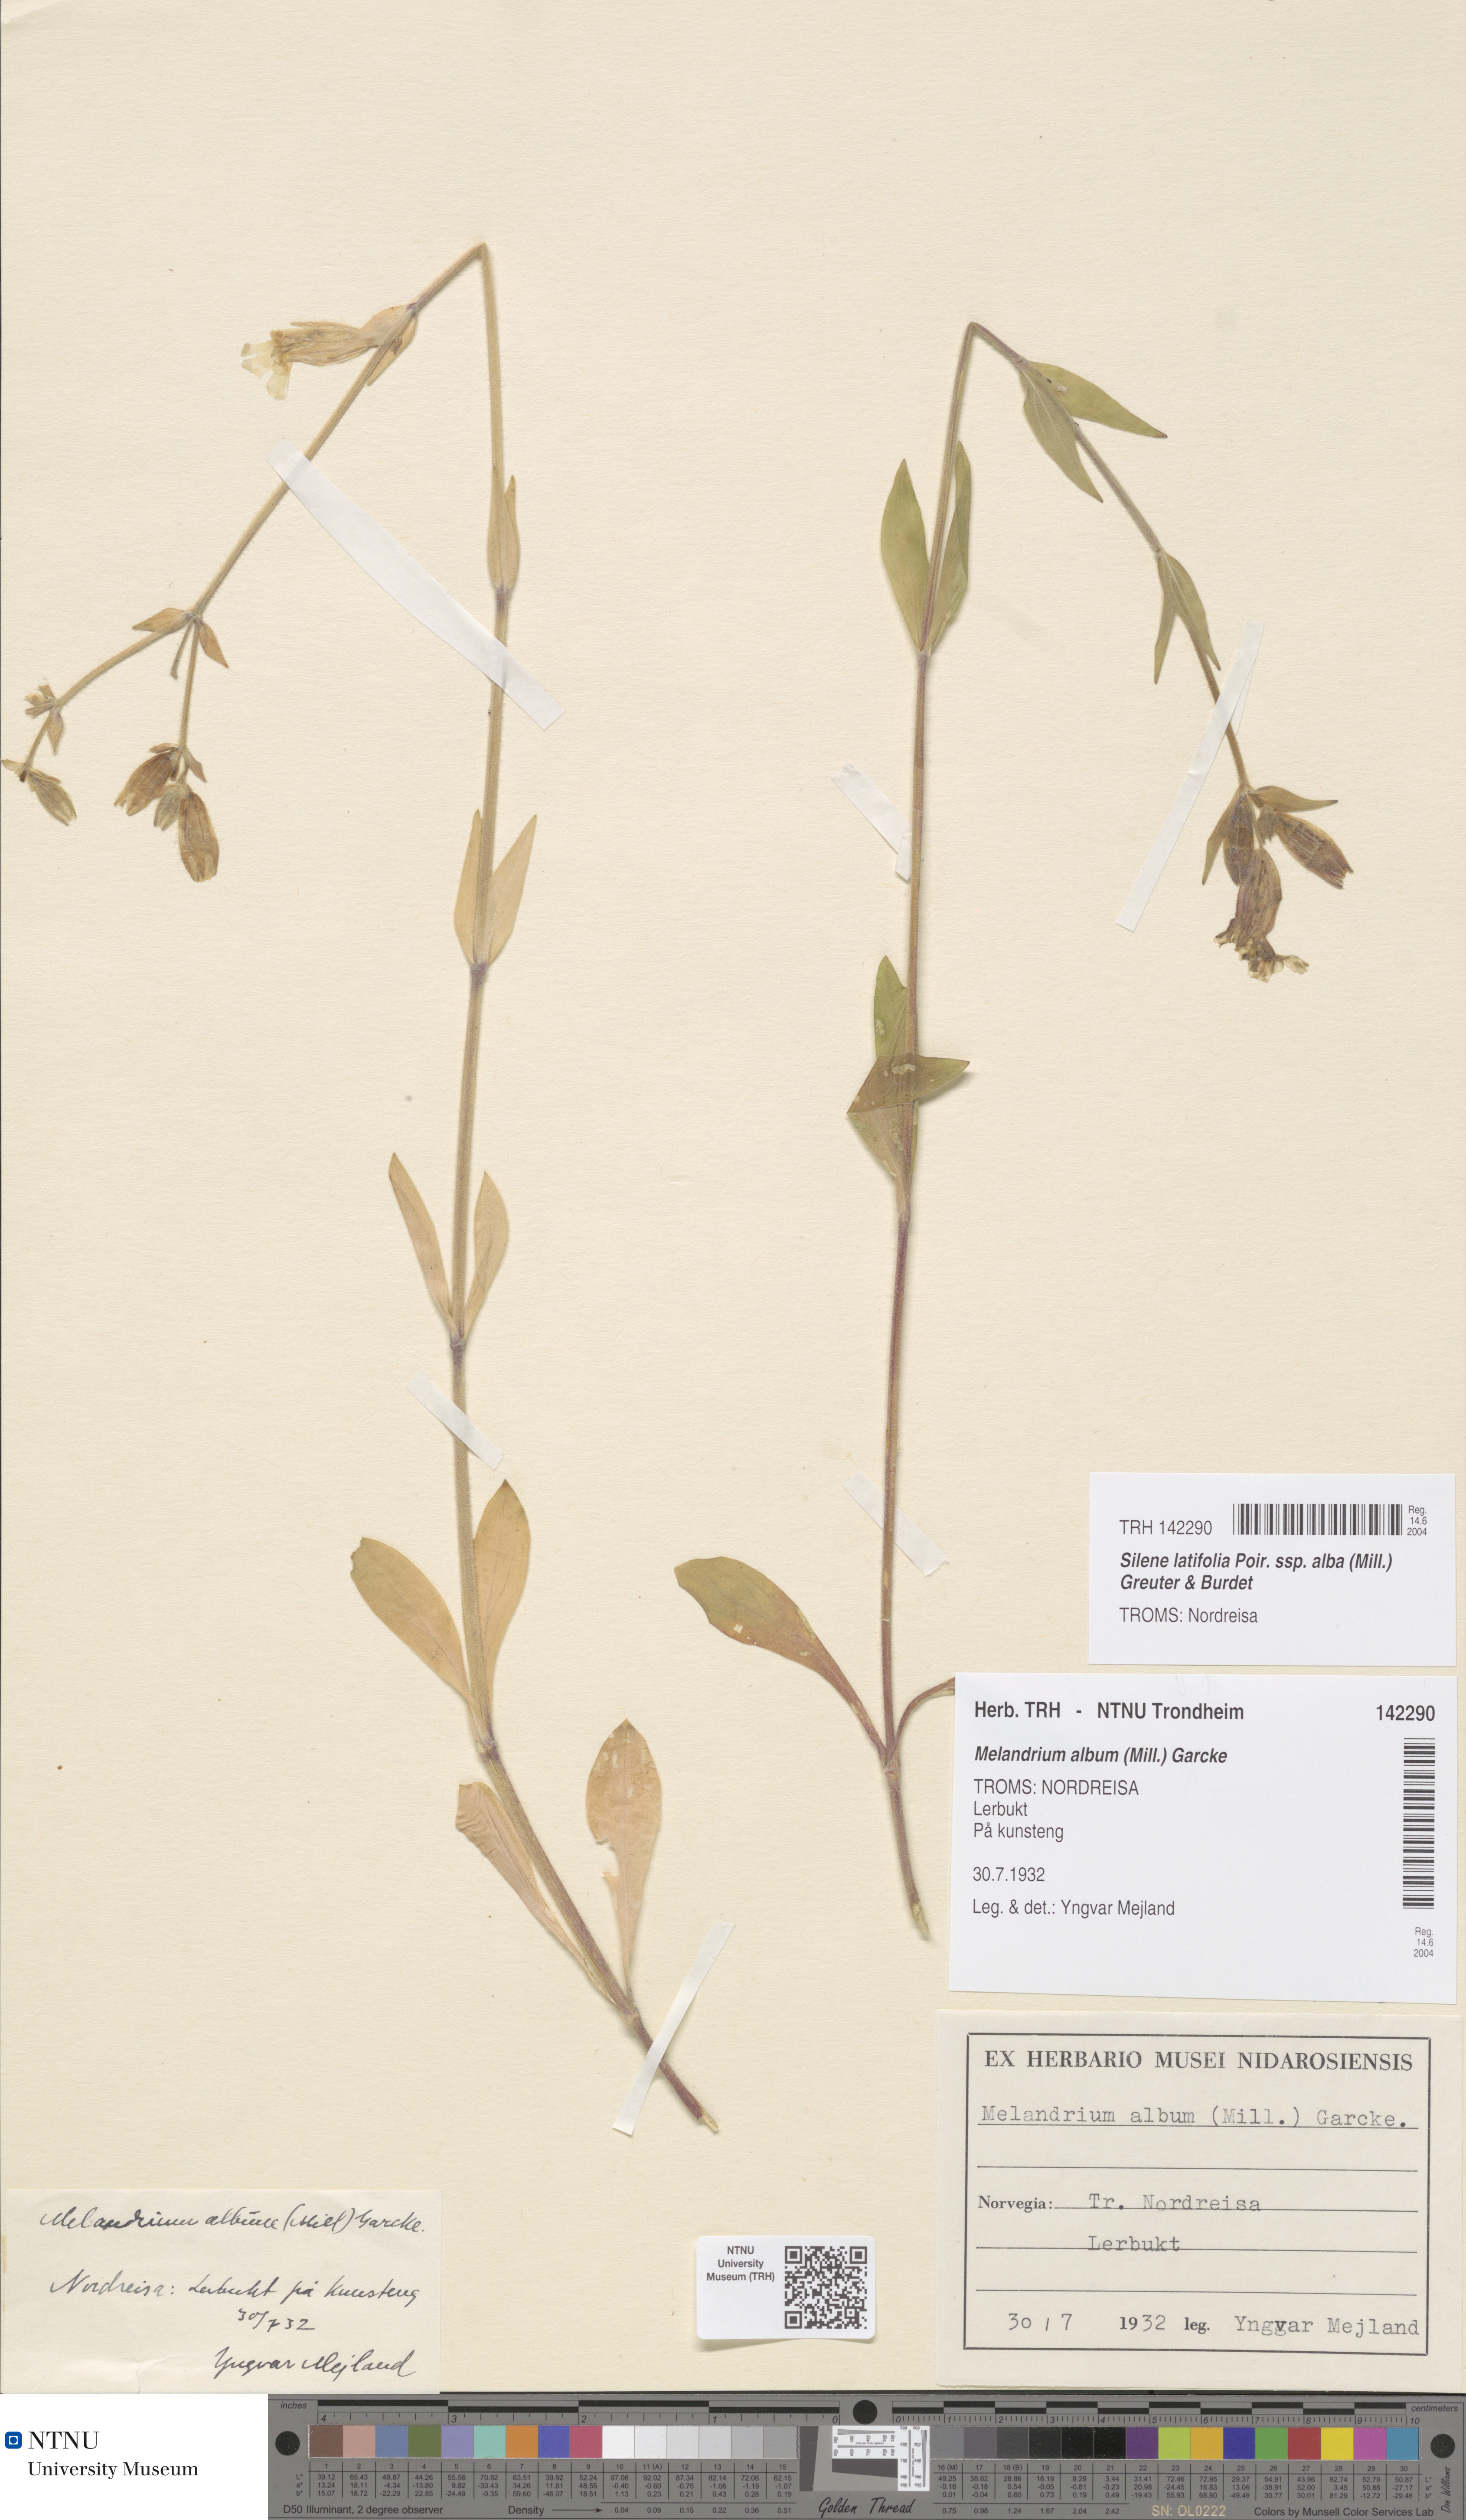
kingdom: Plantae
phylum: Tracheophyta
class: Magnoliopsida
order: Caryophyllales
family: Caryophyllaceae
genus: Silene
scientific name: Silene latifolia
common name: White campion
